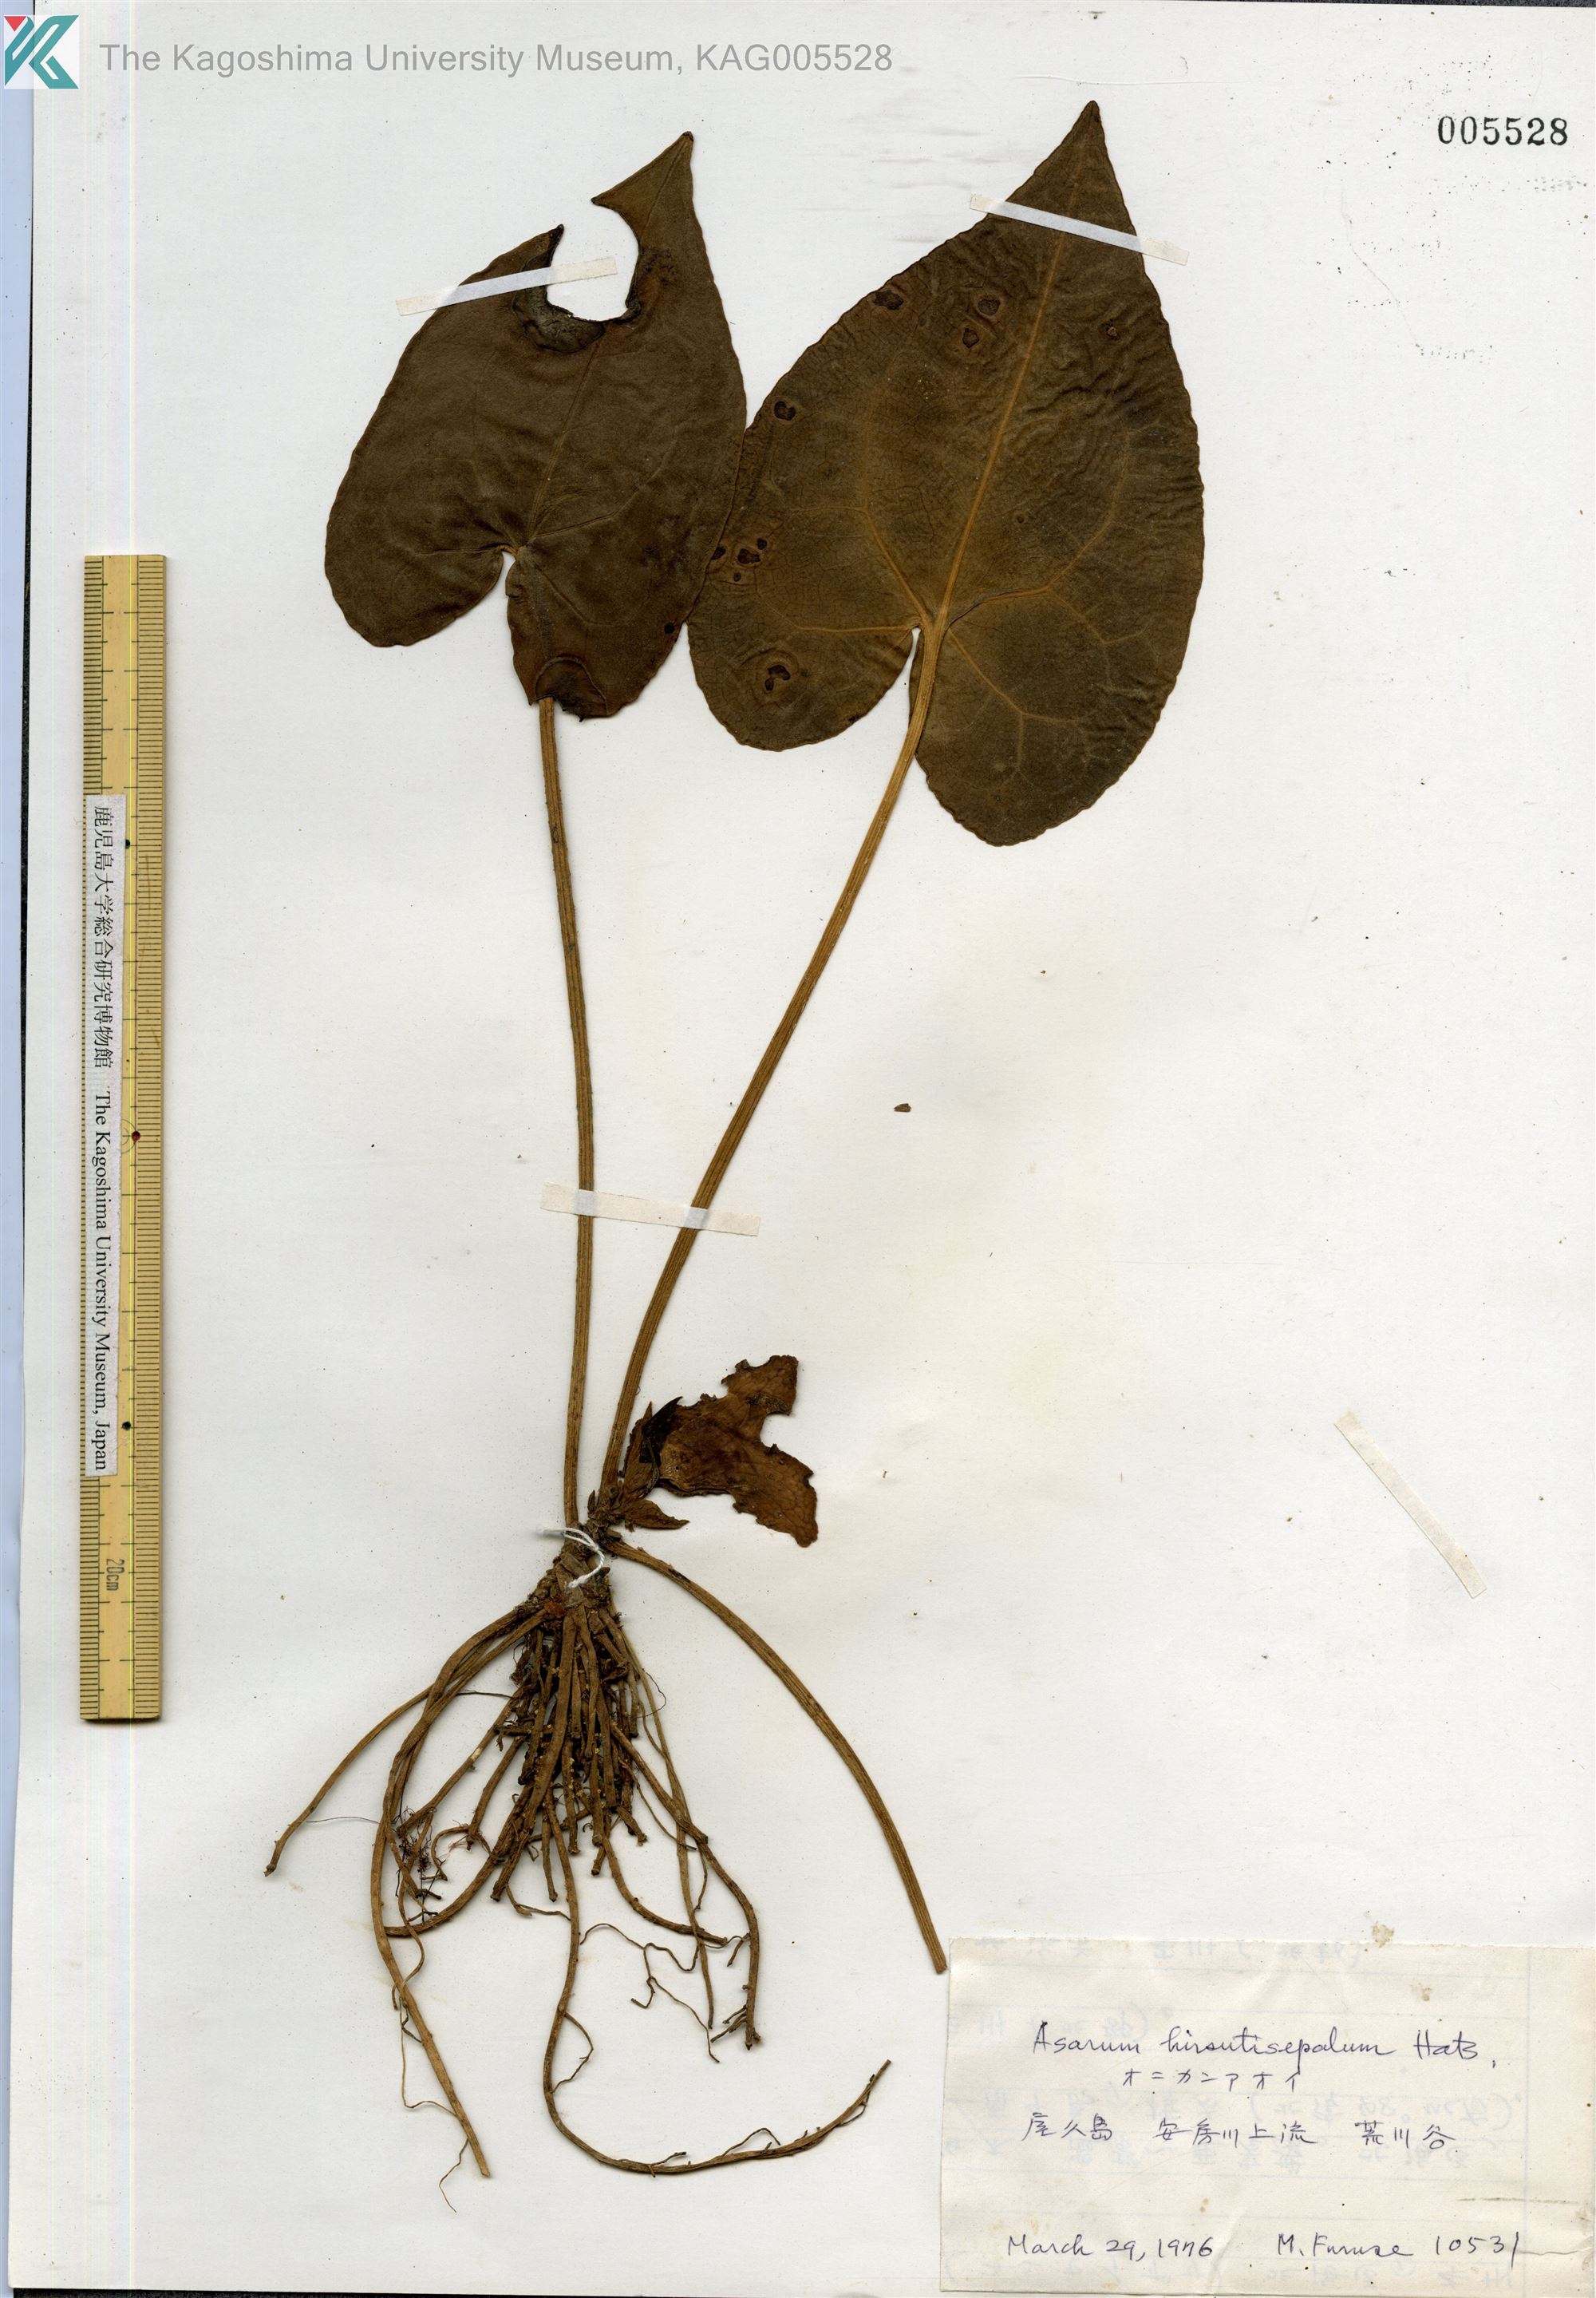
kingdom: Plantae
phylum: Tracheophyta
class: Magnoliopsida
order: Piperales
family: Aristolochiaceae
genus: Asarum
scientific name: Asarum yakusimense
